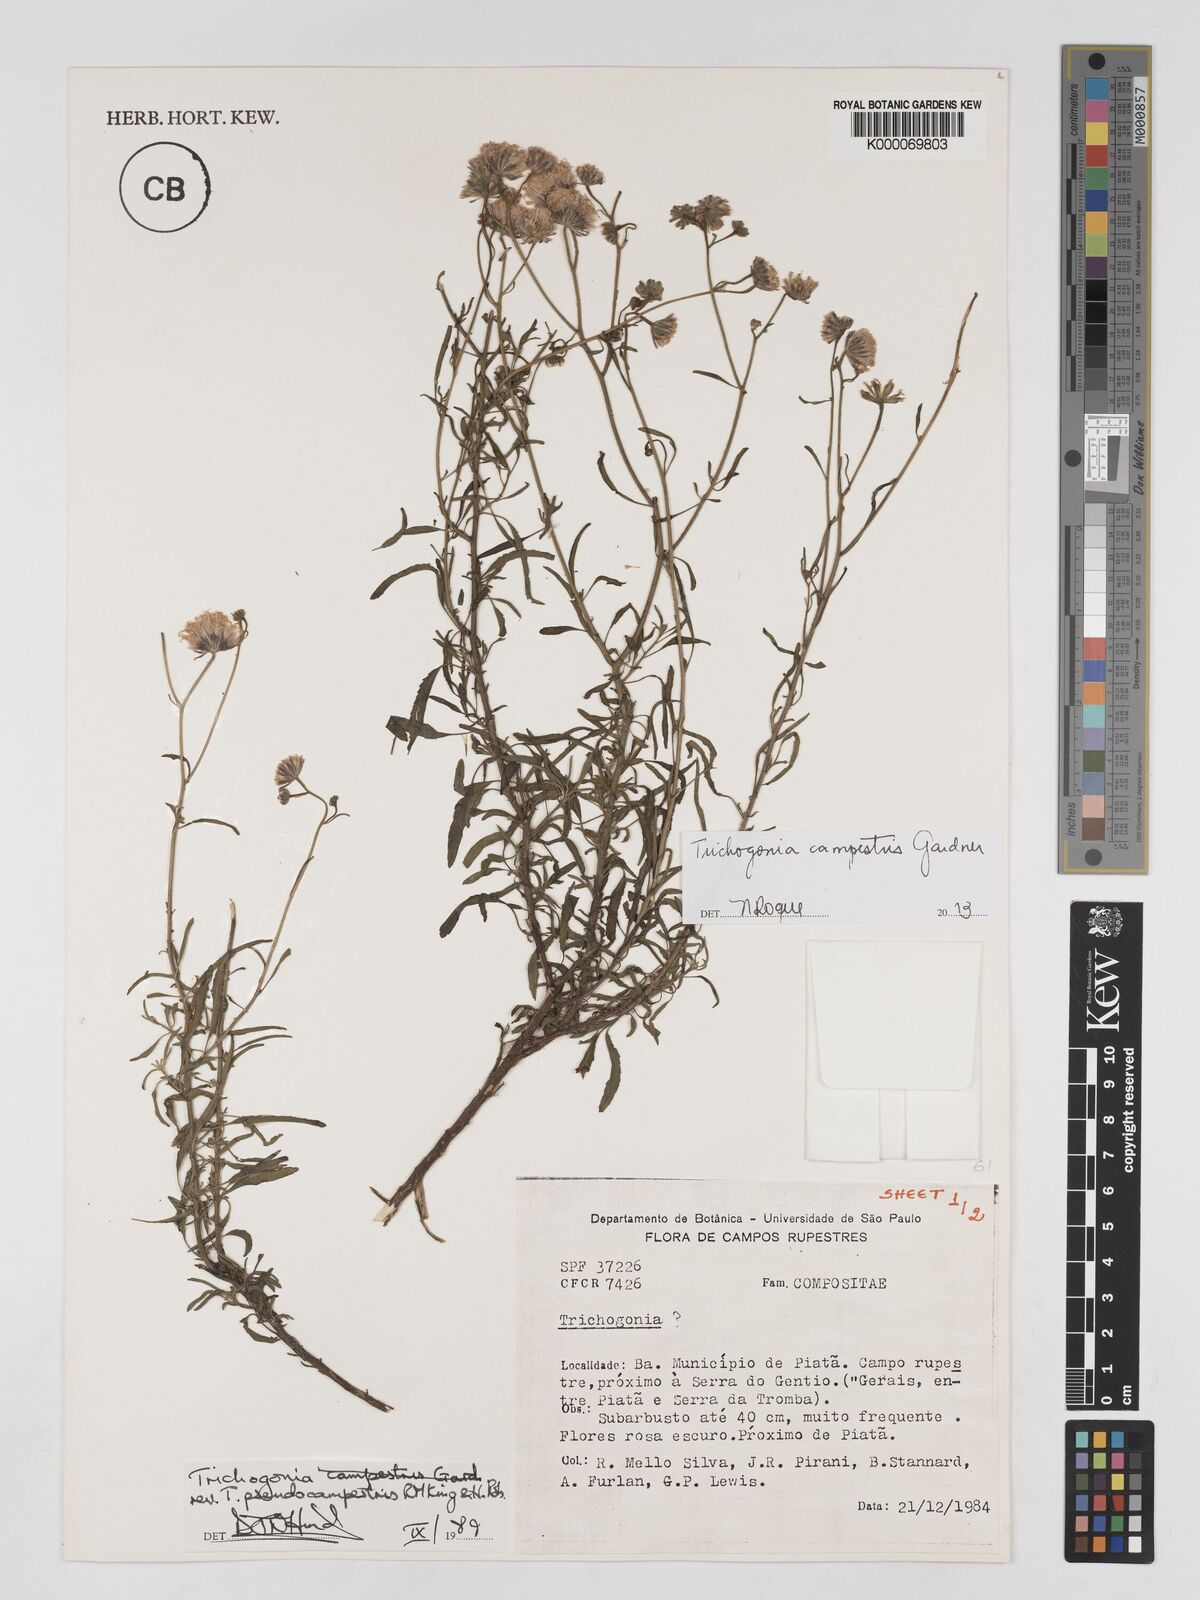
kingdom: Plantae
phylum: Tracheophyta
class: Magnoliopsida
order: Asterales
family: Asteraceae
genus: Trichogonia
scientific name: Trichogonia campestris
